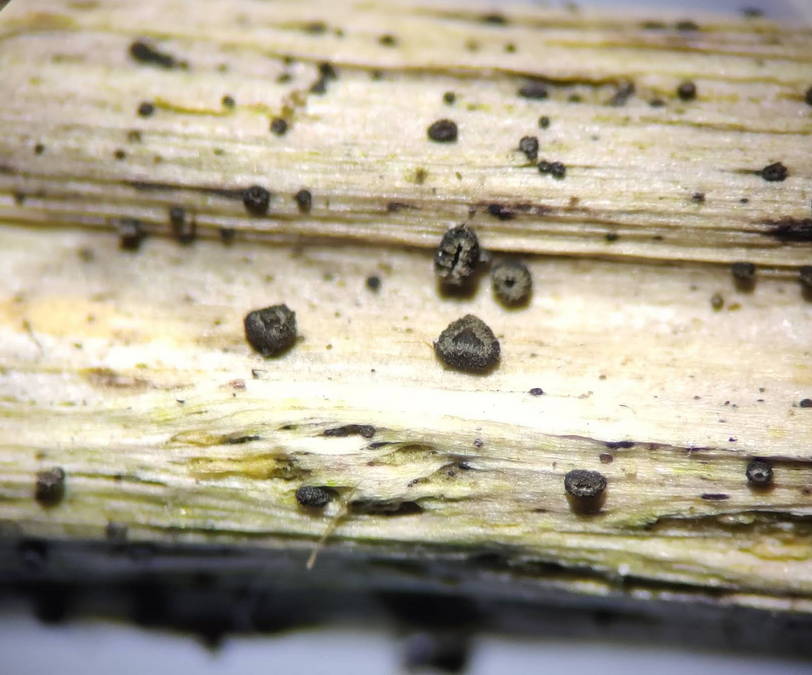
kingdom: Fungi
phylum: Ascomycota
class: Leotiomycetes
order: Helotiales
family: Ploettnerulaceae
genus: Pyrenopeziza
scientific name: Pyrenopeziza urticicola
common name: nælde-kerneskive
